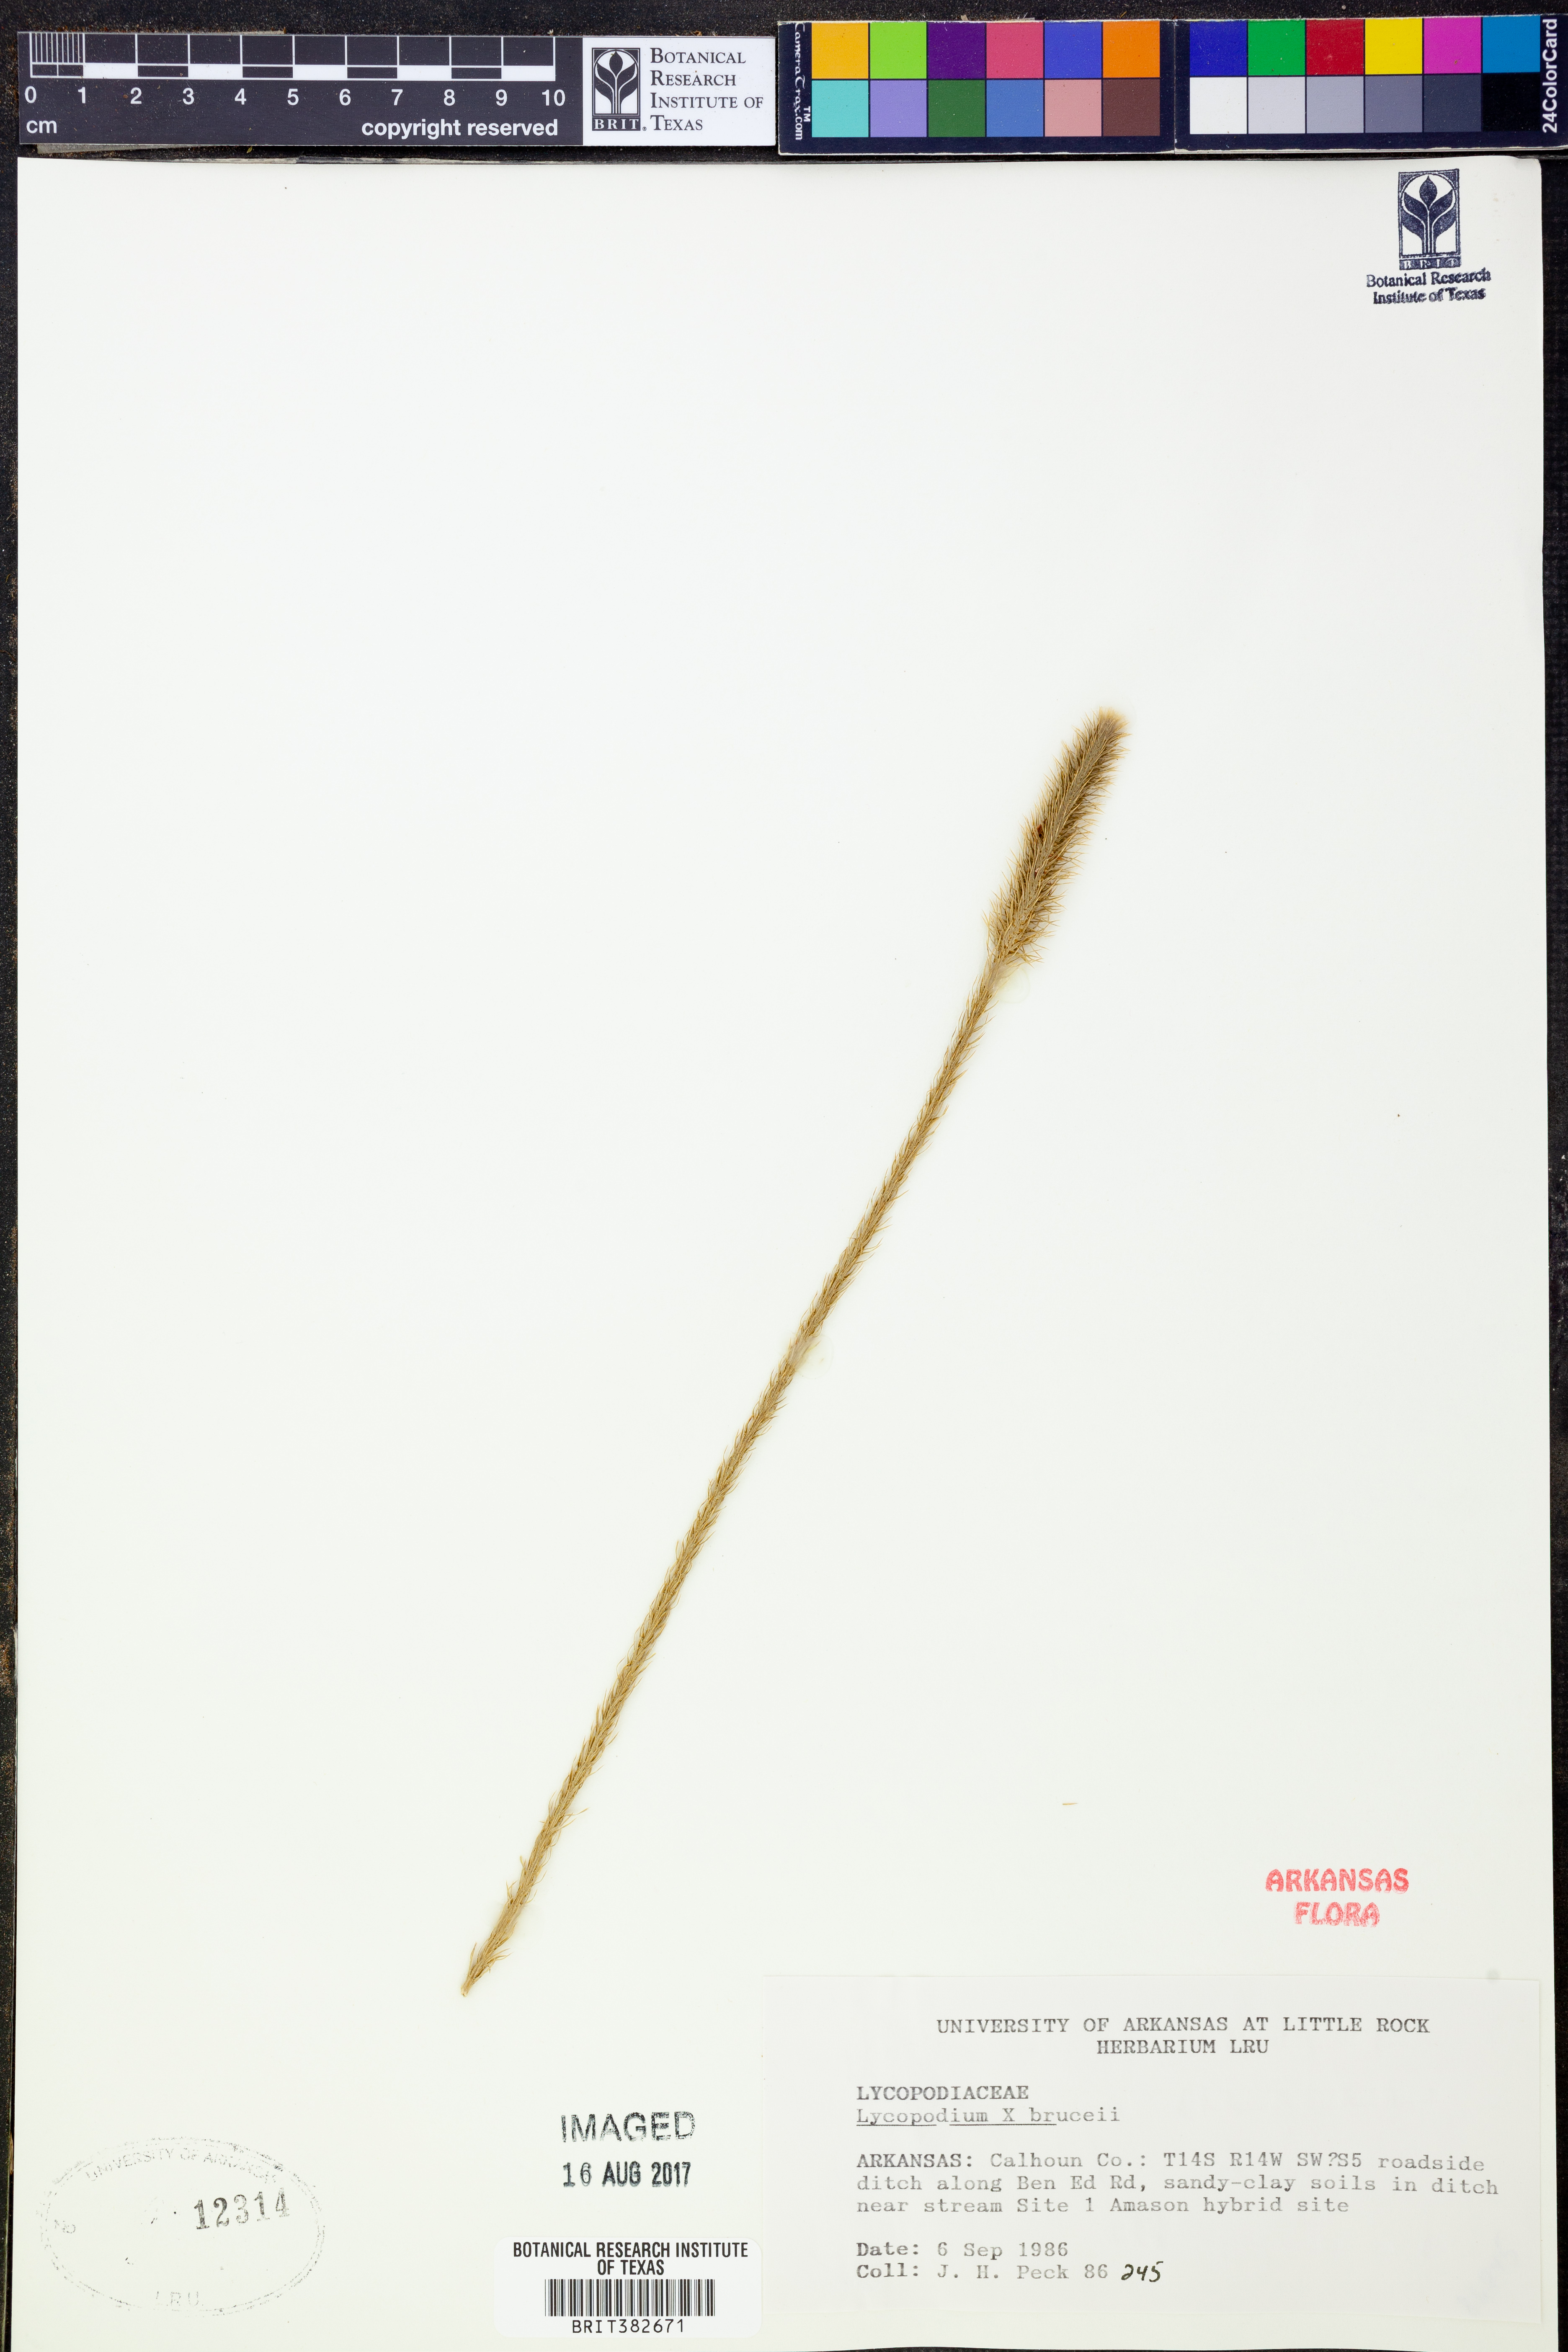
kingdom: Plantae
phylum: Tracheophyta
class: Lycopodiopsida
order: Lycopodiales
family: Lycopodiaceae
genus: Lycopodiella
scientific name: Lycopodiella brucei
